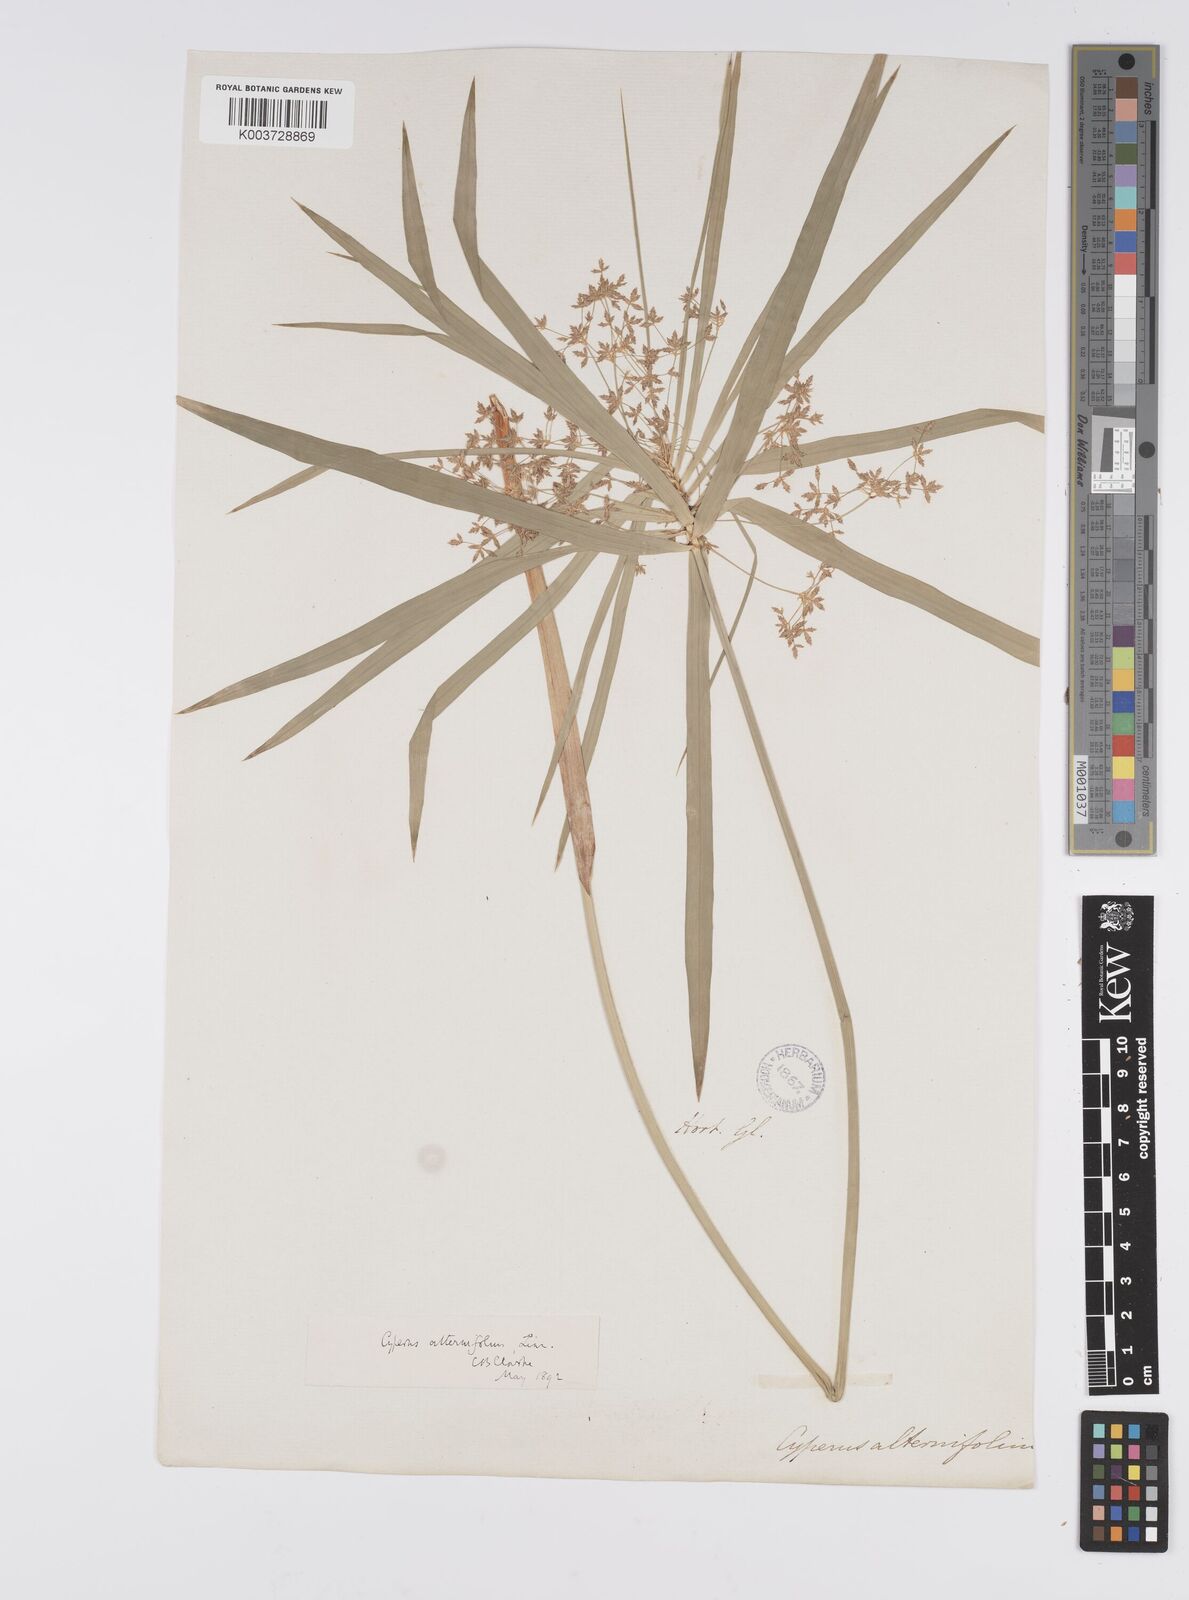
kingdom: Plantae
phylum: Tracheophyta
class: Liliopsida
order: Poales
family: Cyperaceae
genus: Cyperus
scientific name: Cyperus alternifolius
